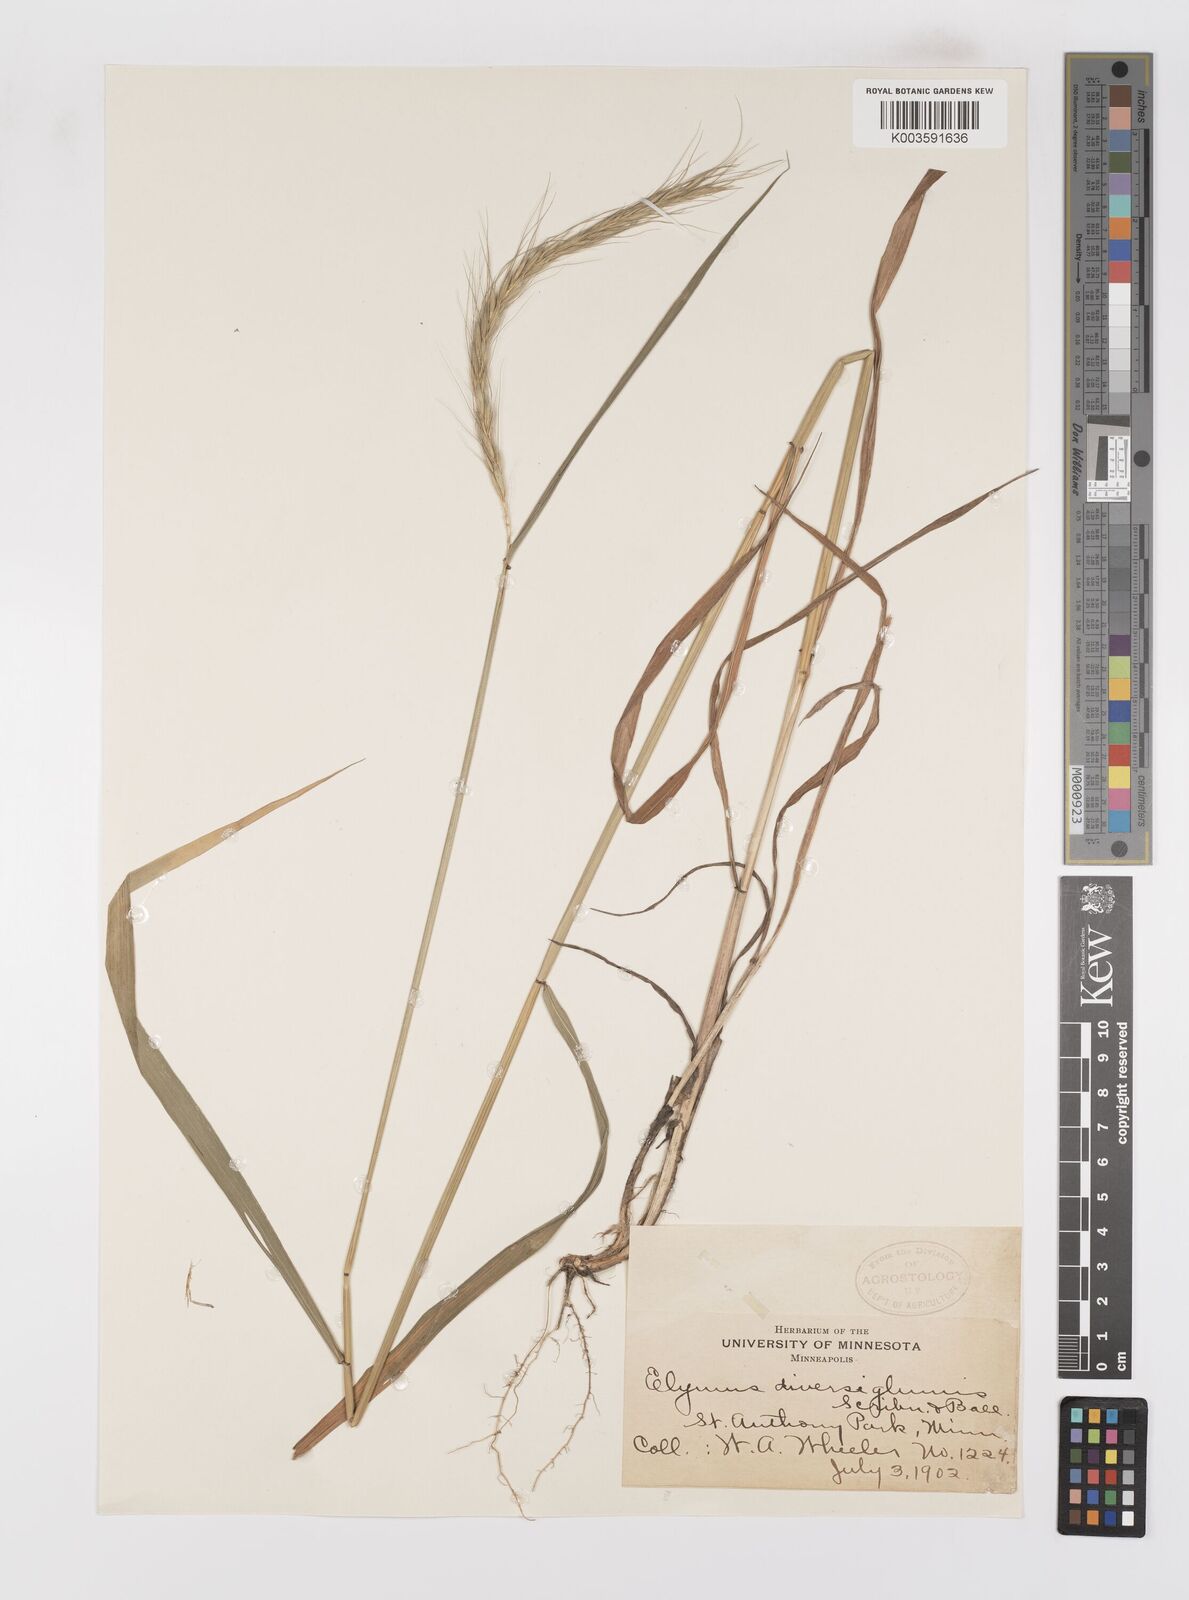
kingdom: Plantae
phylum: Tracheophyta
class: Liliopsida
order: Poales
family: Poaceae
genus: Leymus
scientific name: Leymus
